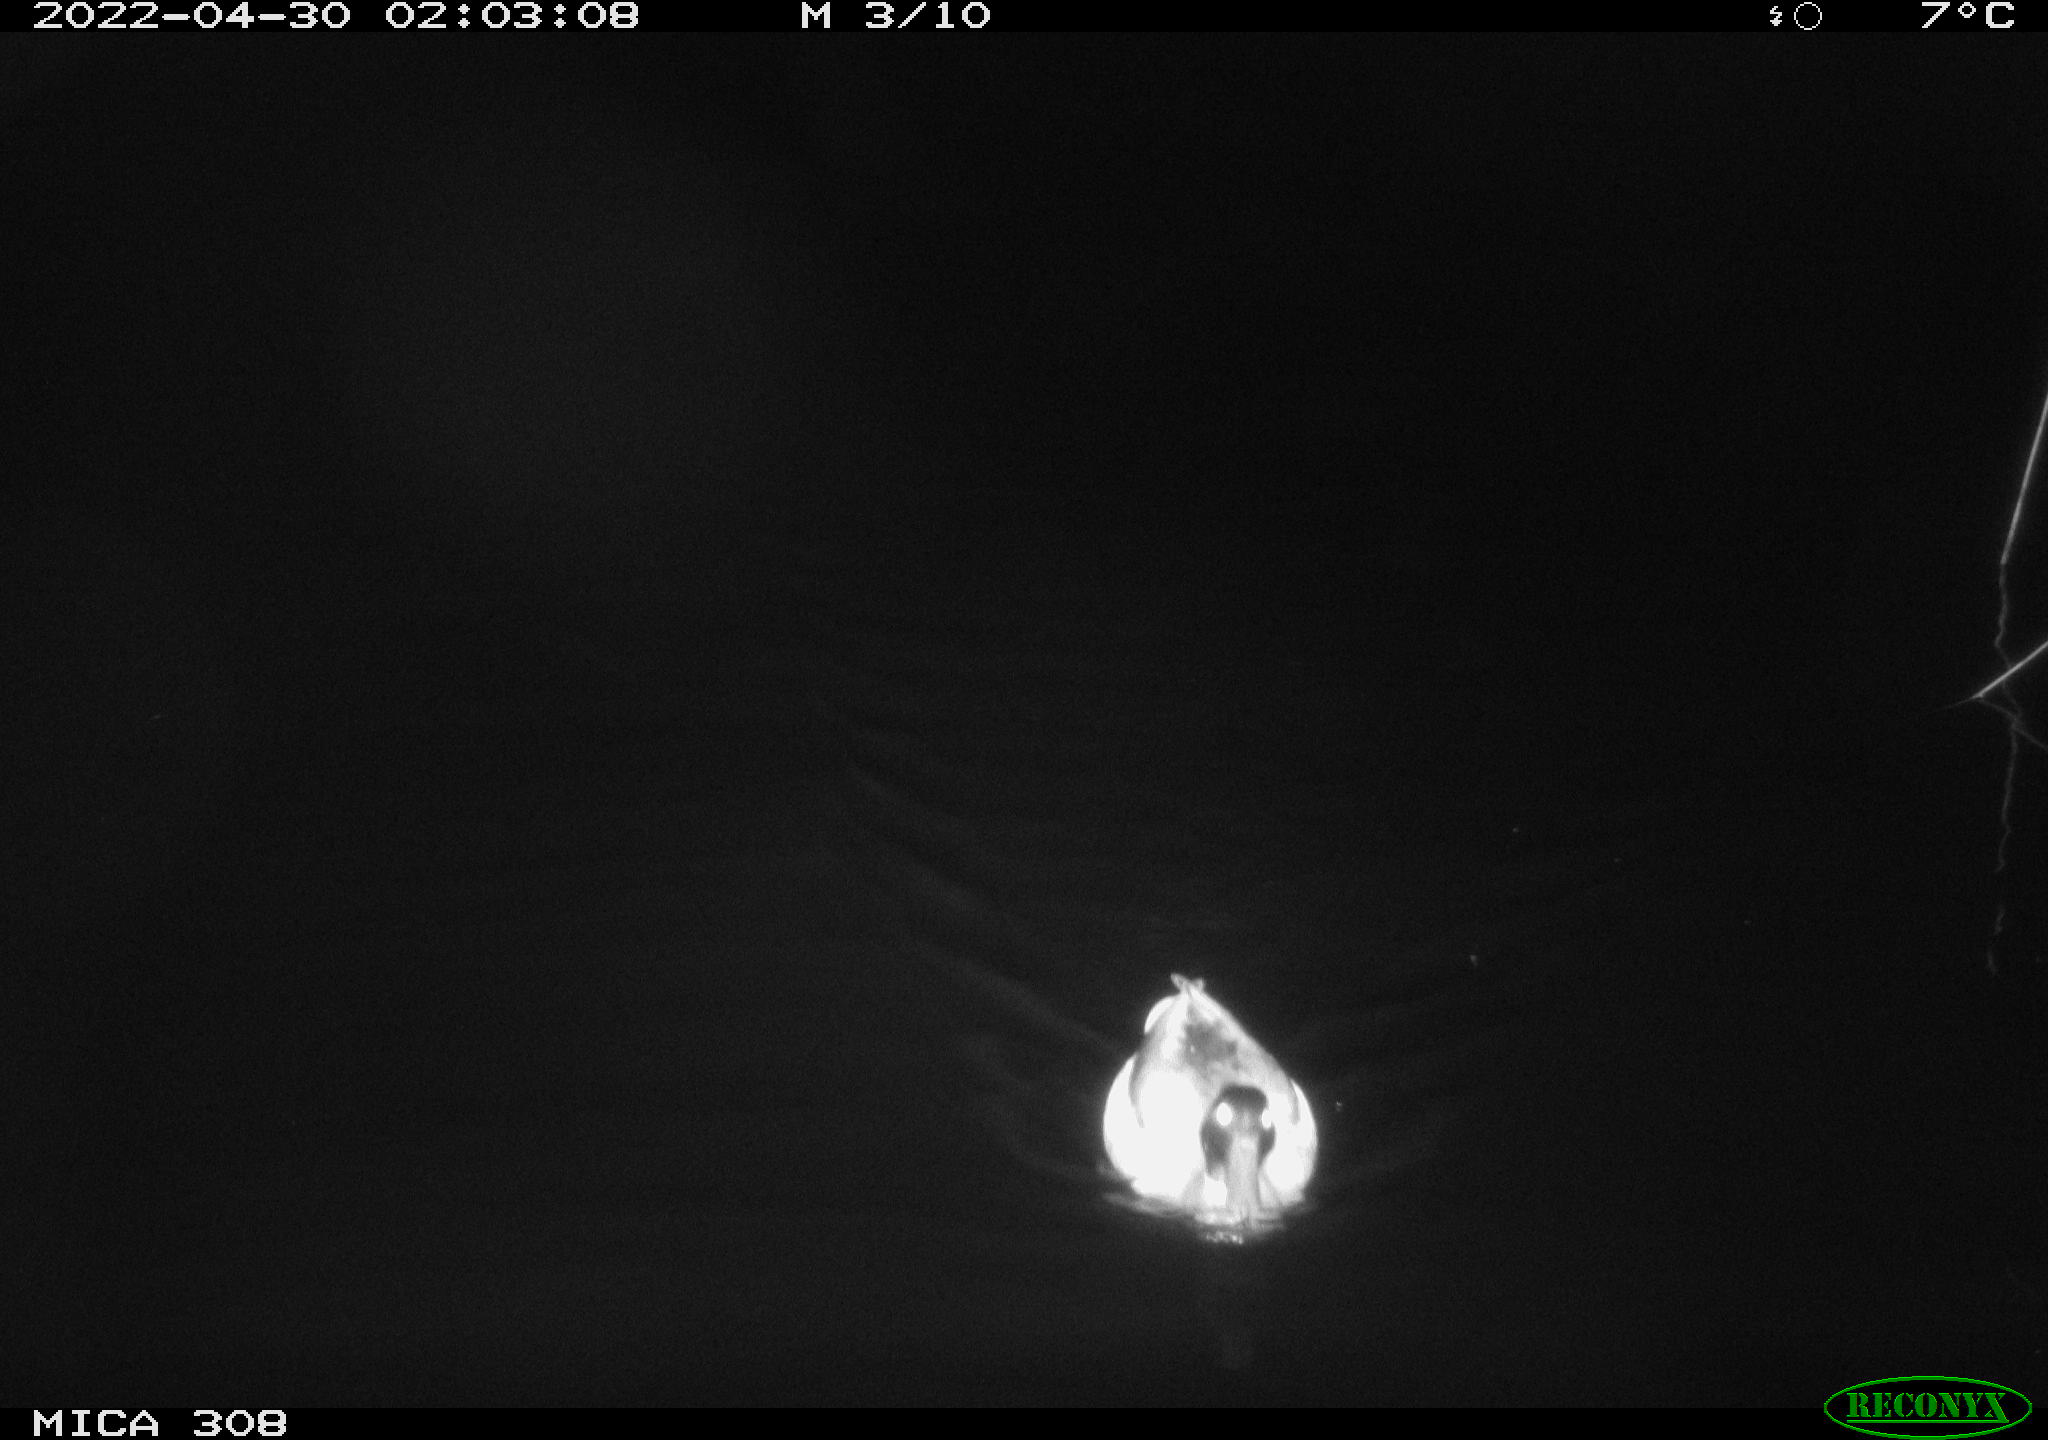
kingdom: Animalia
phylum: Chordata
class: Aves
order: Anseriformes
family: Anatidae
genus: Anas
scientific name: Anas platyrhynchos
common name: Mallard
